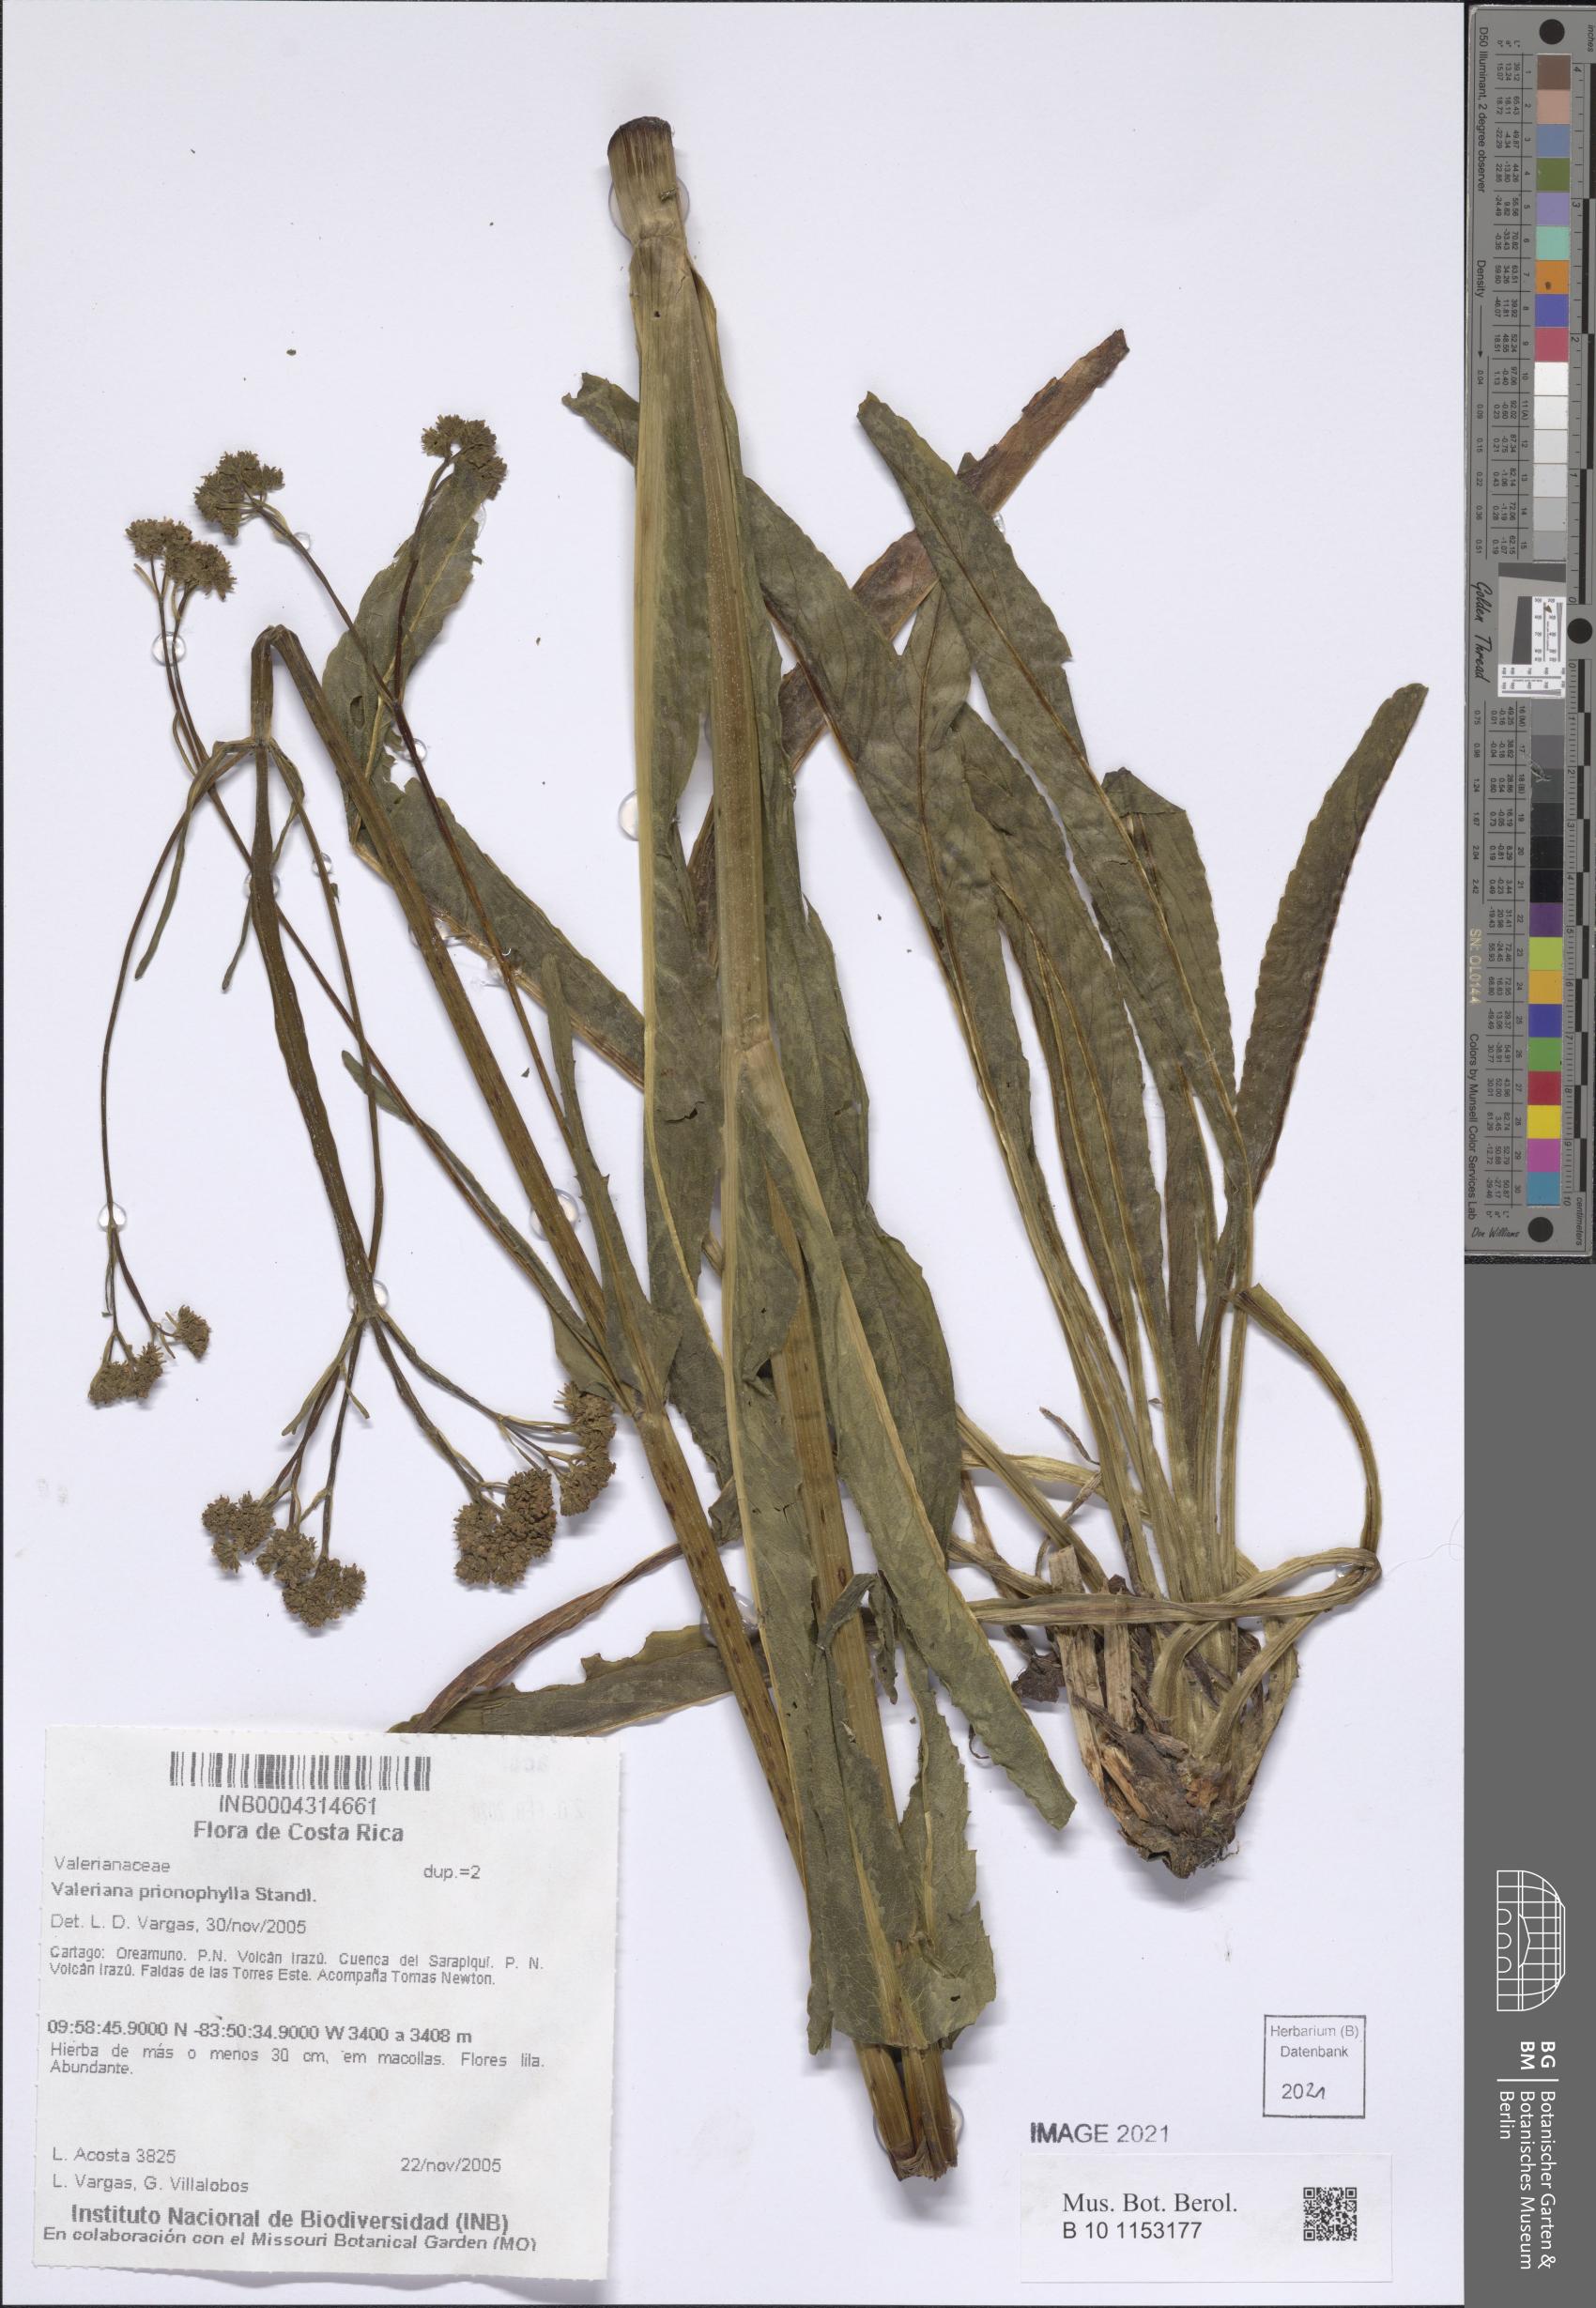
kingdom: Plantae
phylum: Tracheophyta
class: Magnoliopsida
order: Dipsacales
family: Caprifoliaceae
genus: Valeriana
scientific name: Valeriana prionophylla
